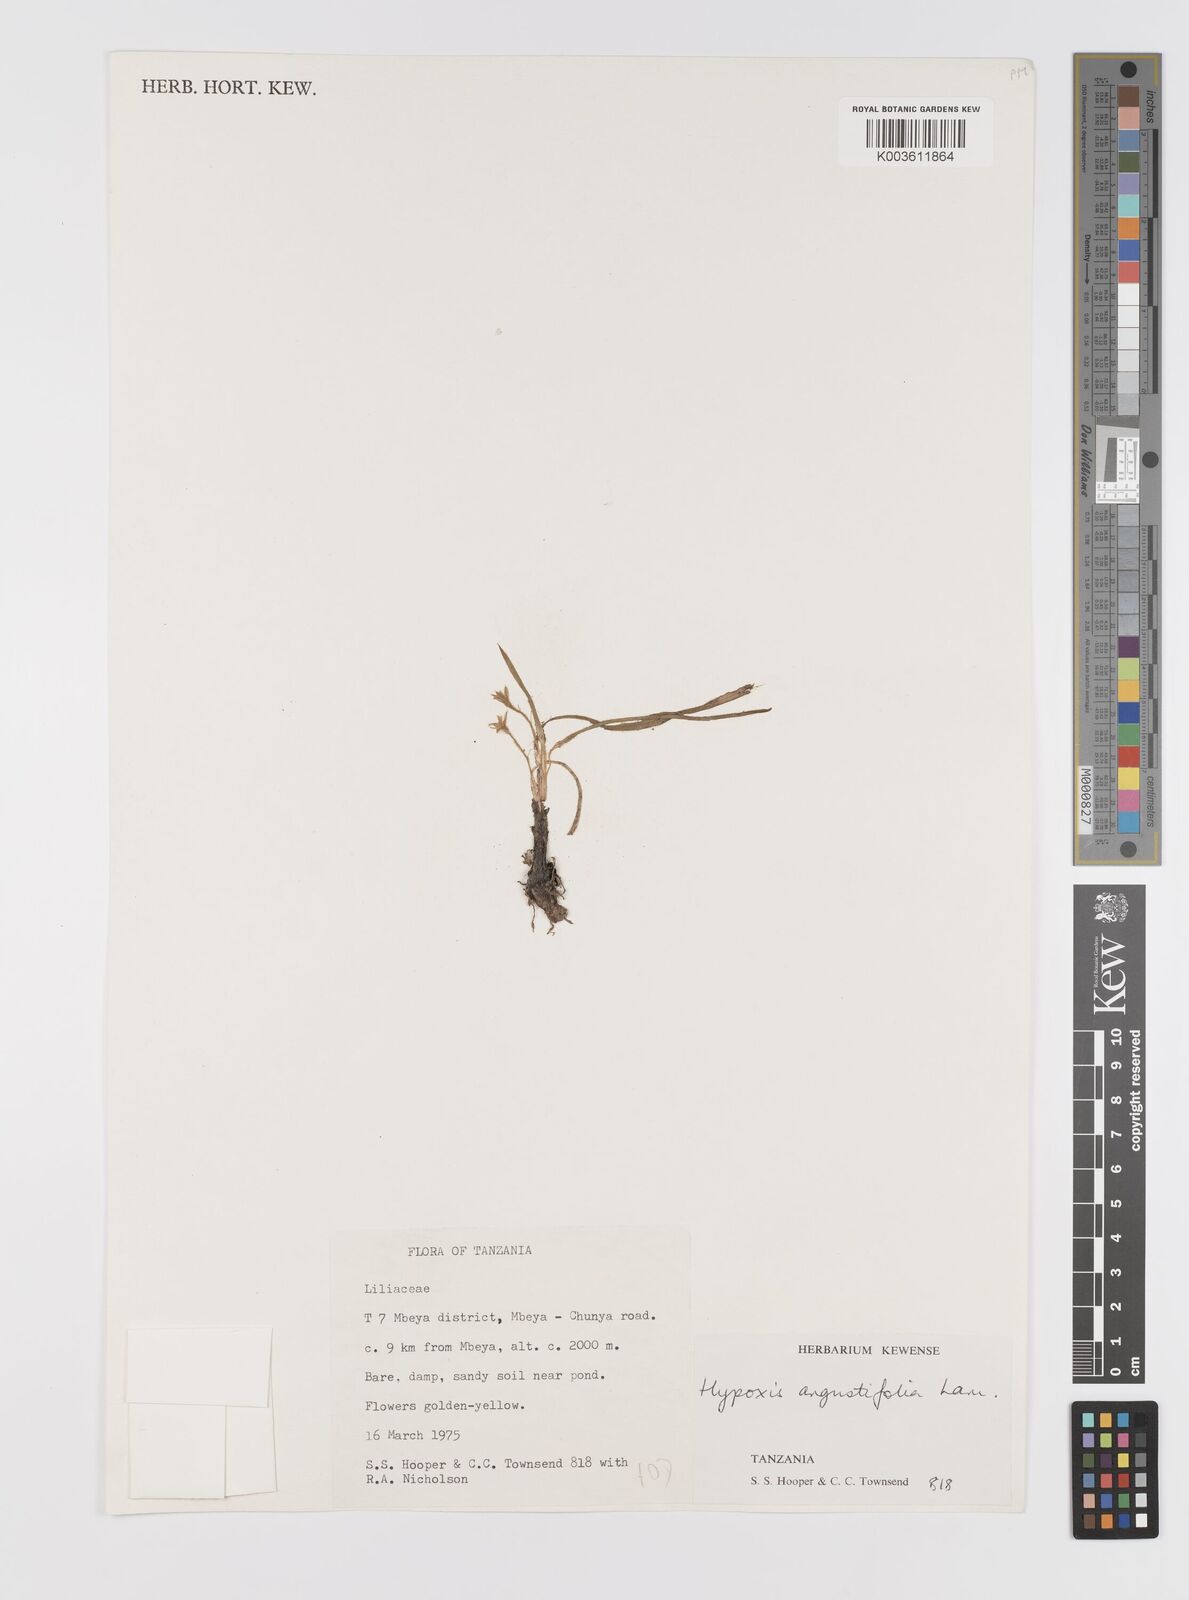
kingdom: Plantae
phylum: Tracheophyta
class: Liliopsida
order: Asparagales
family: Hypoxidaceae
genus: Hypoxis
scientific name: Hypoxis angustifolia
